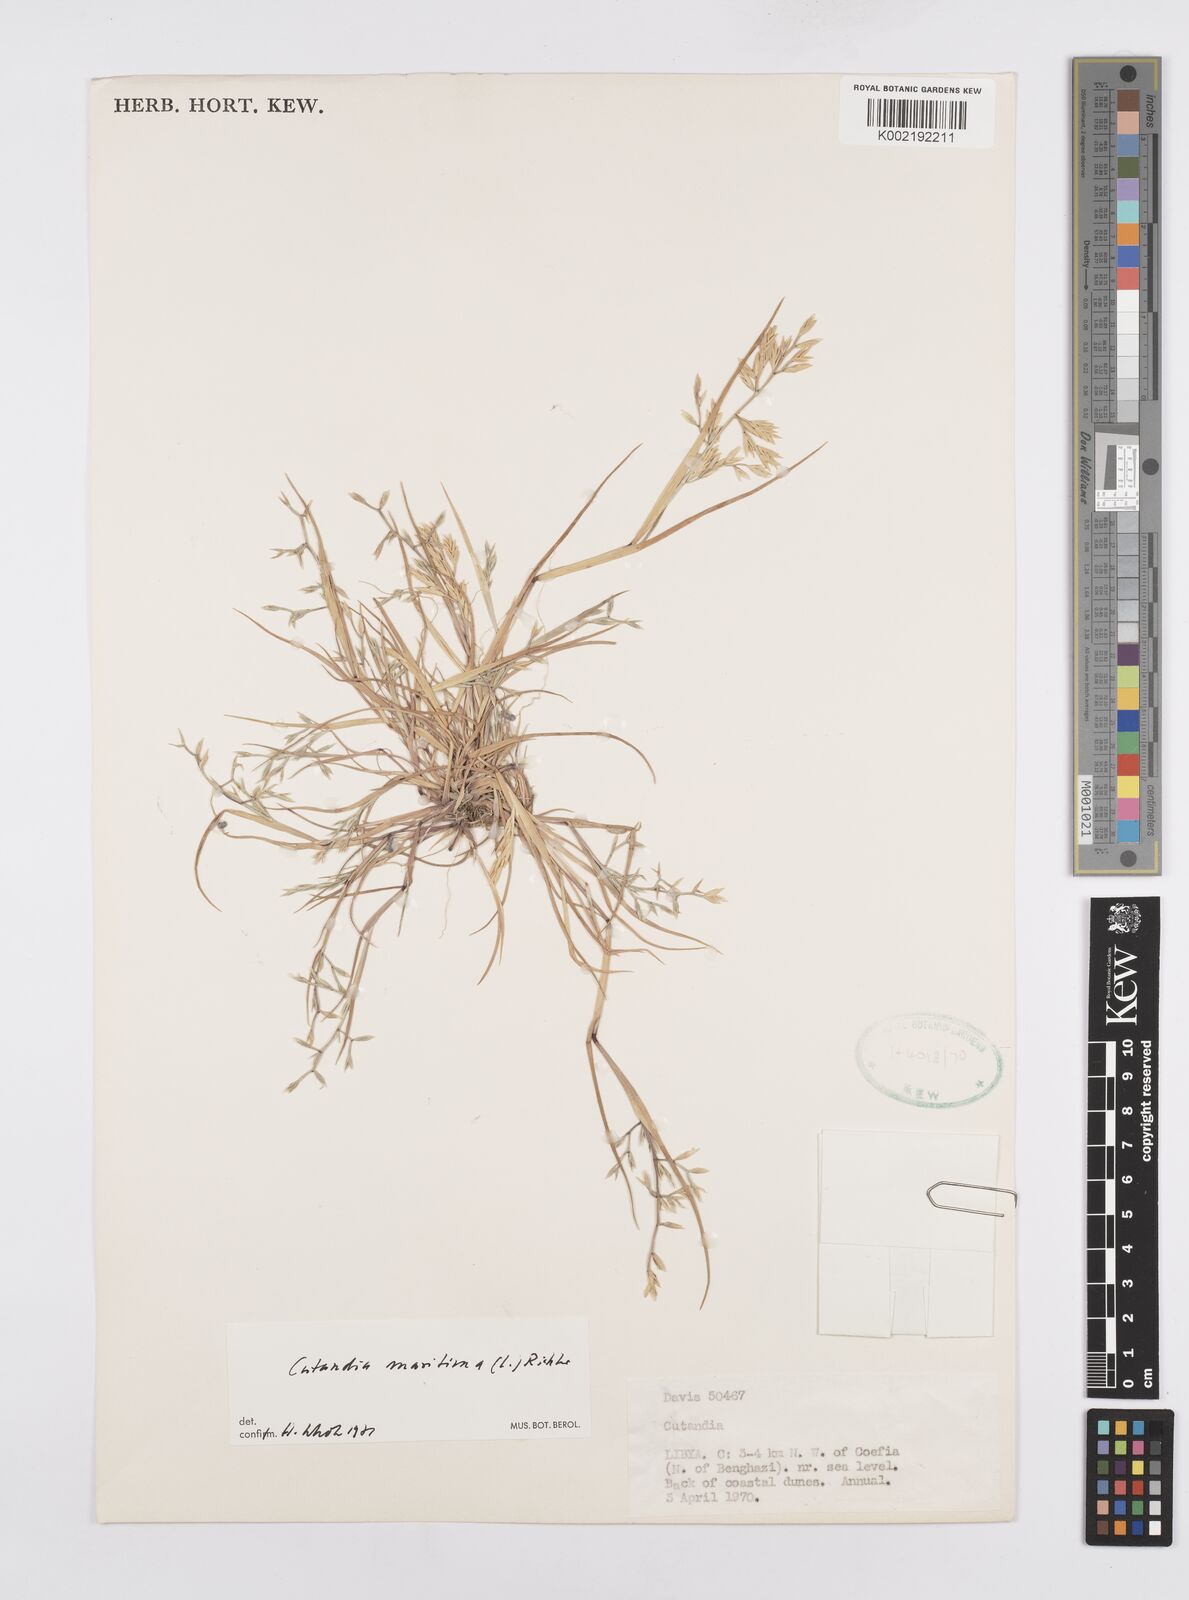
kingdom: Plantae
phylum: Tracheophyta
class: Liliopsida
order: Poales
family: Poaceae
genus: Cutandia
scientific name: Cutandia maritima
